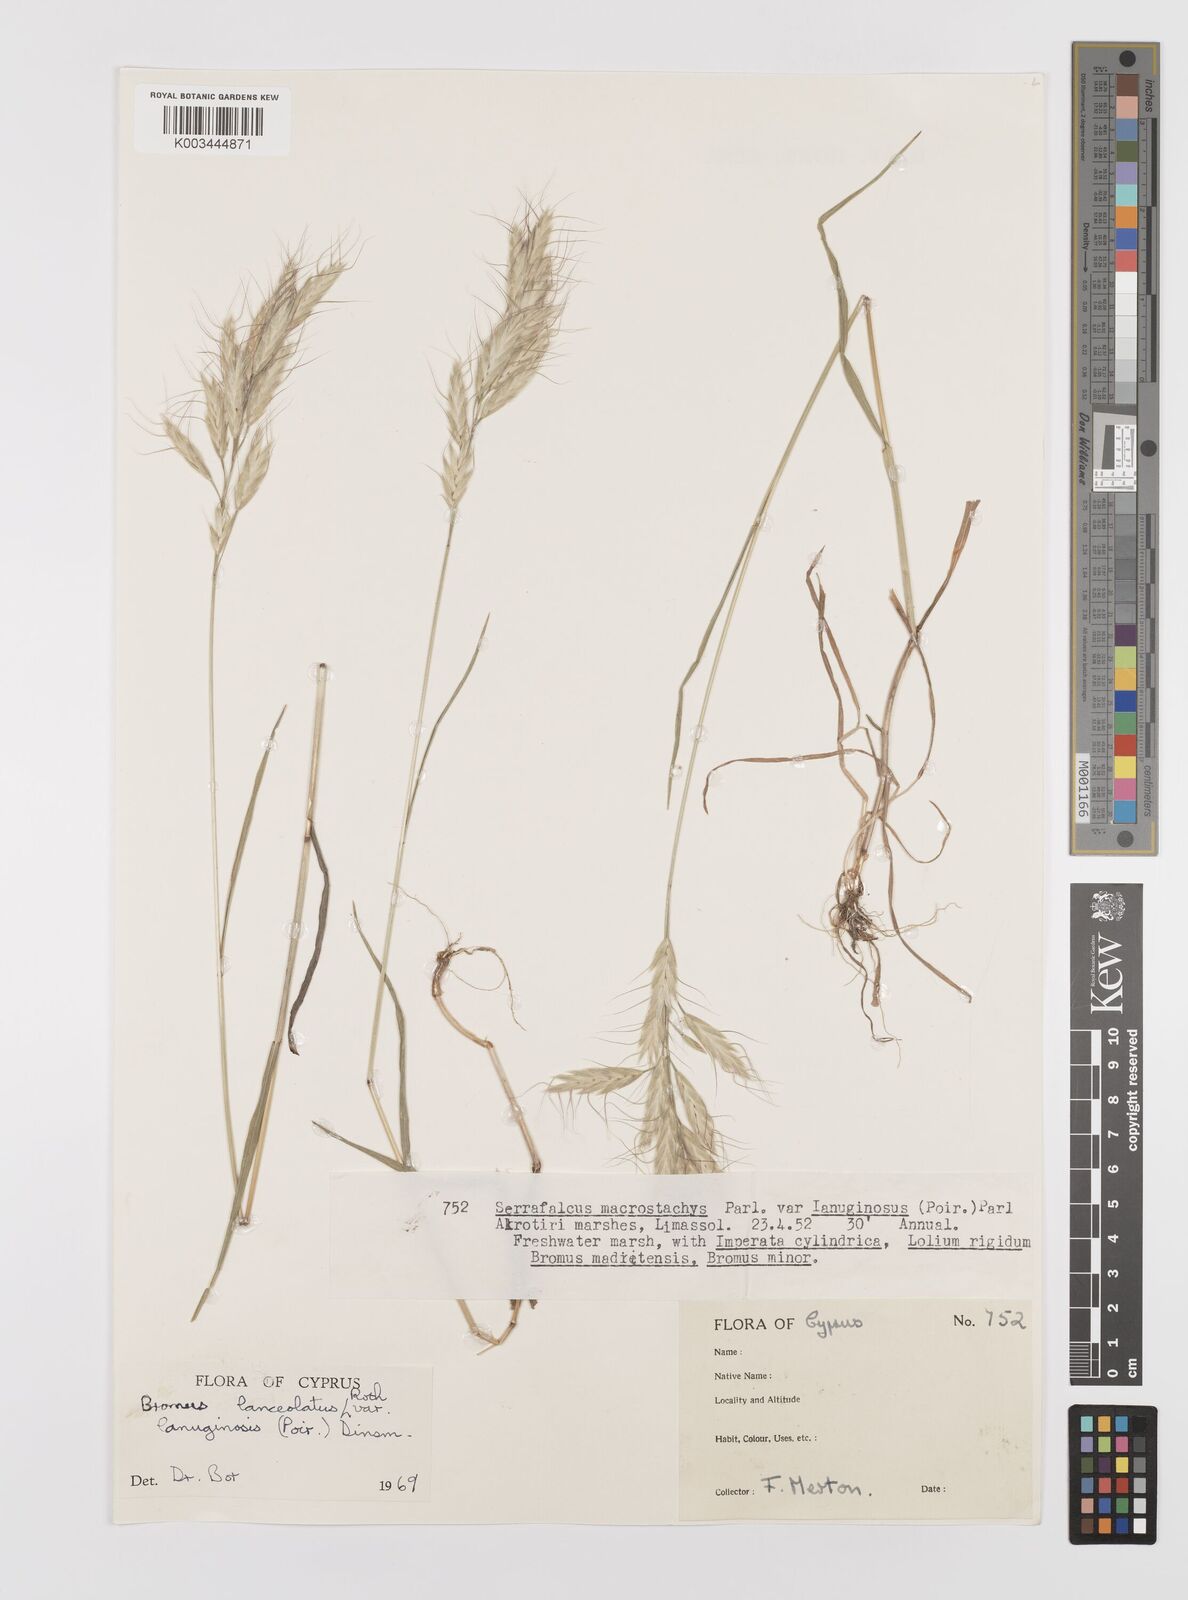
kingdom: Plantae
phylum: Tracheophyta
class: Liliopsida
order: Poales
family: Poaceae
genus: Bromus
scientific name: Bromus lanceolatus
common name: Mediterranean brome
